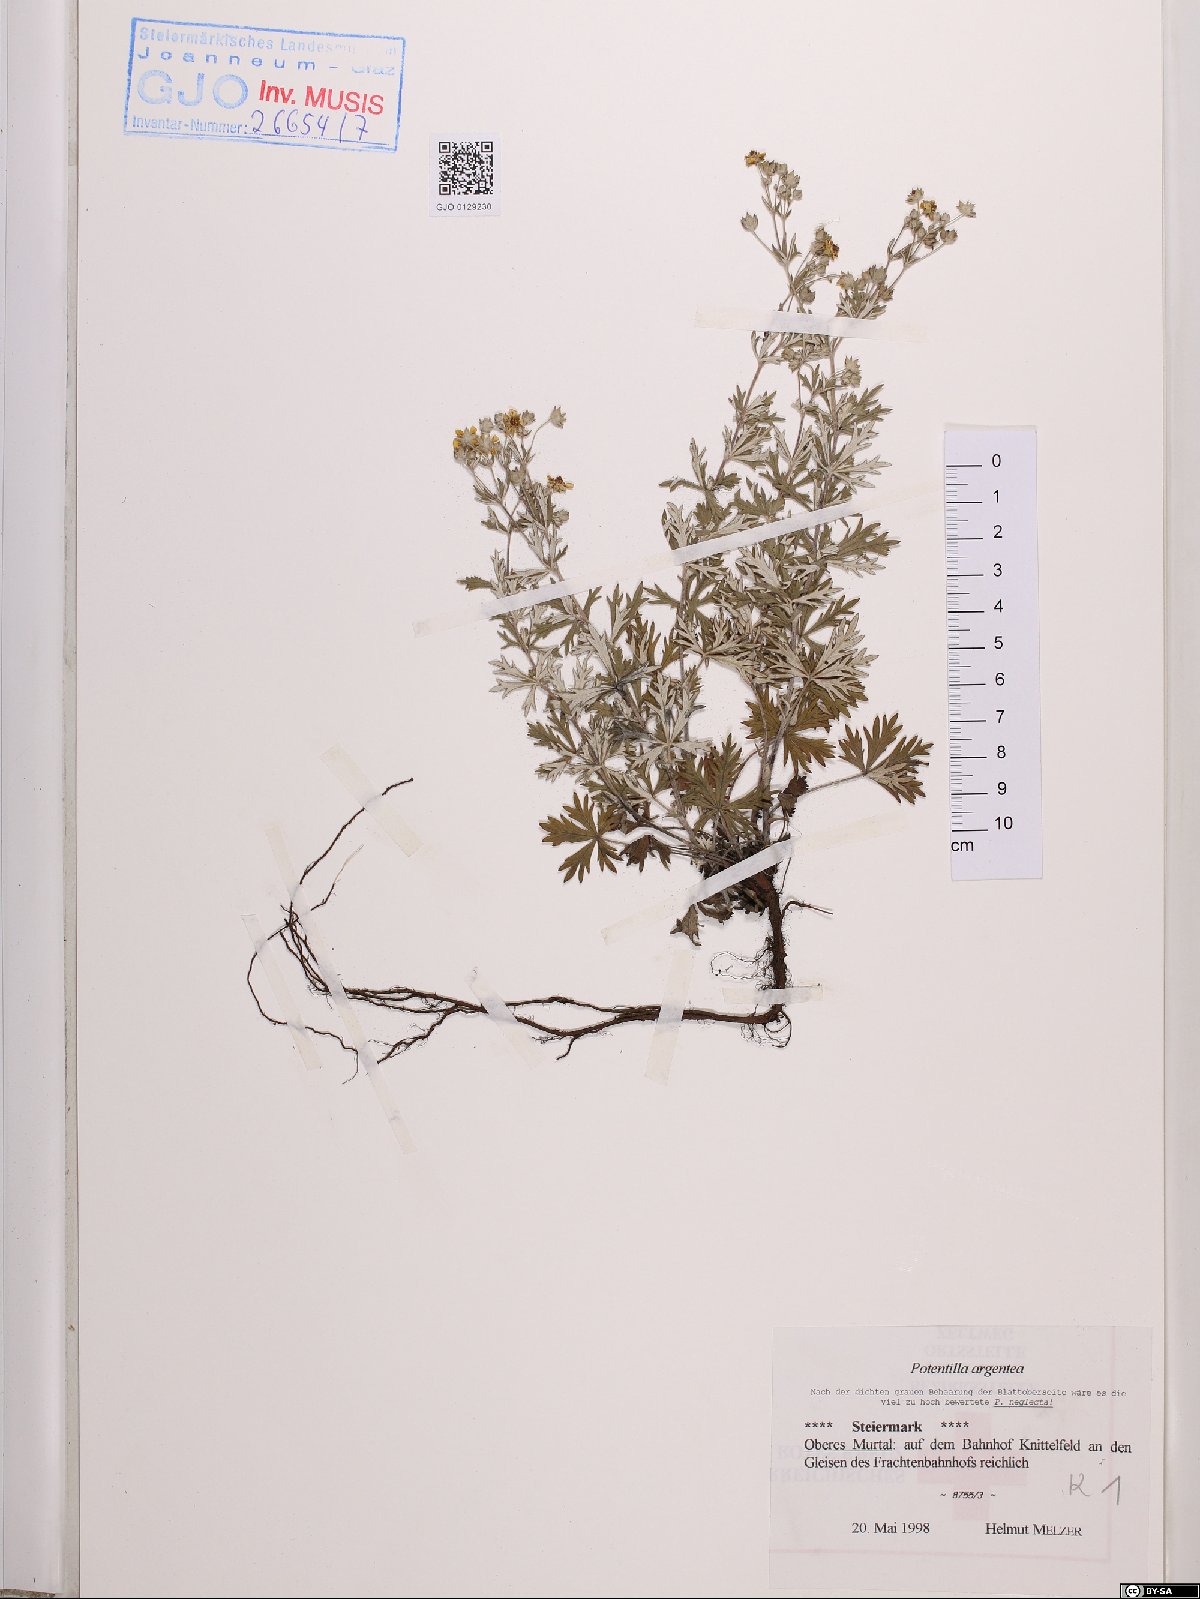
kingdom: Plantae
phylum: Tracheophyta
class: Magnoliopsida
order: Rosales
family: Rosaceae
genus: Potentilla
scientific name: Potentilla argentea
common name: Hoary cinquefoil
